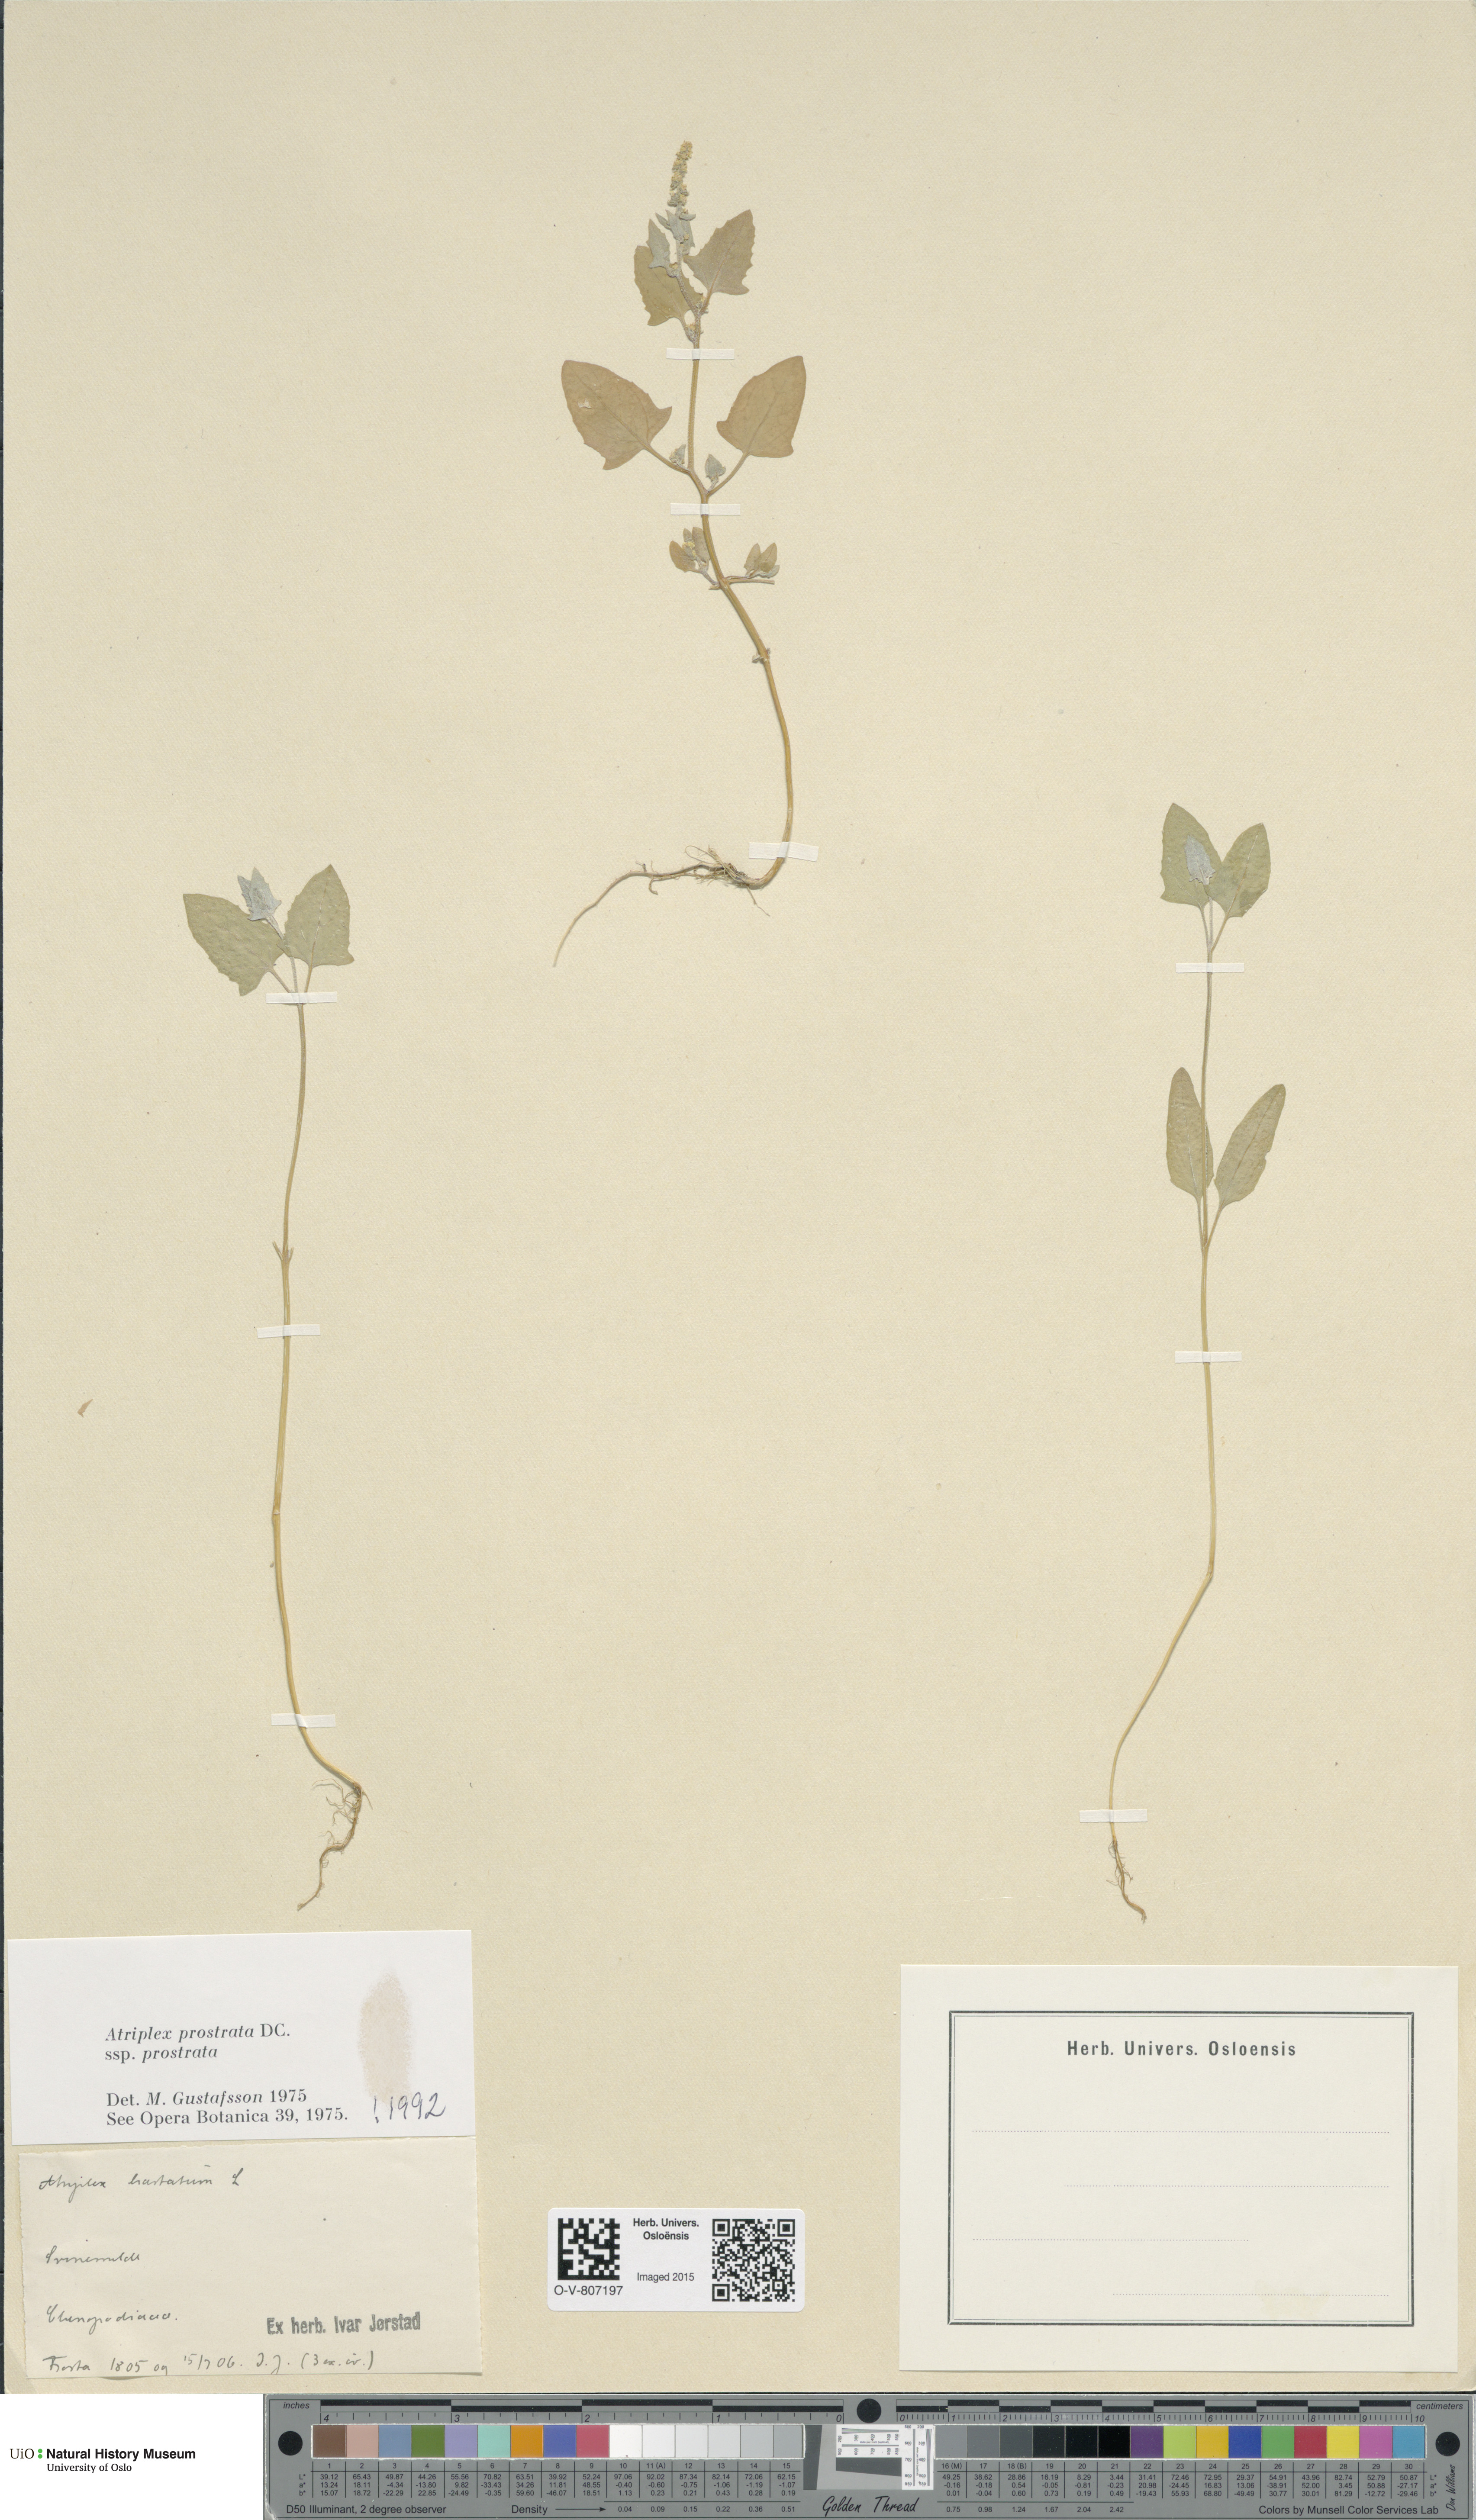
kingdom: Plantae
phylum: Tracheophyta
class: Magnoliopsida
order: Caryophyllales
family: Amaranthaceae
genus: Atriplex
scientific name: Atriplex prostrata
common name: Spear-leaved orache
